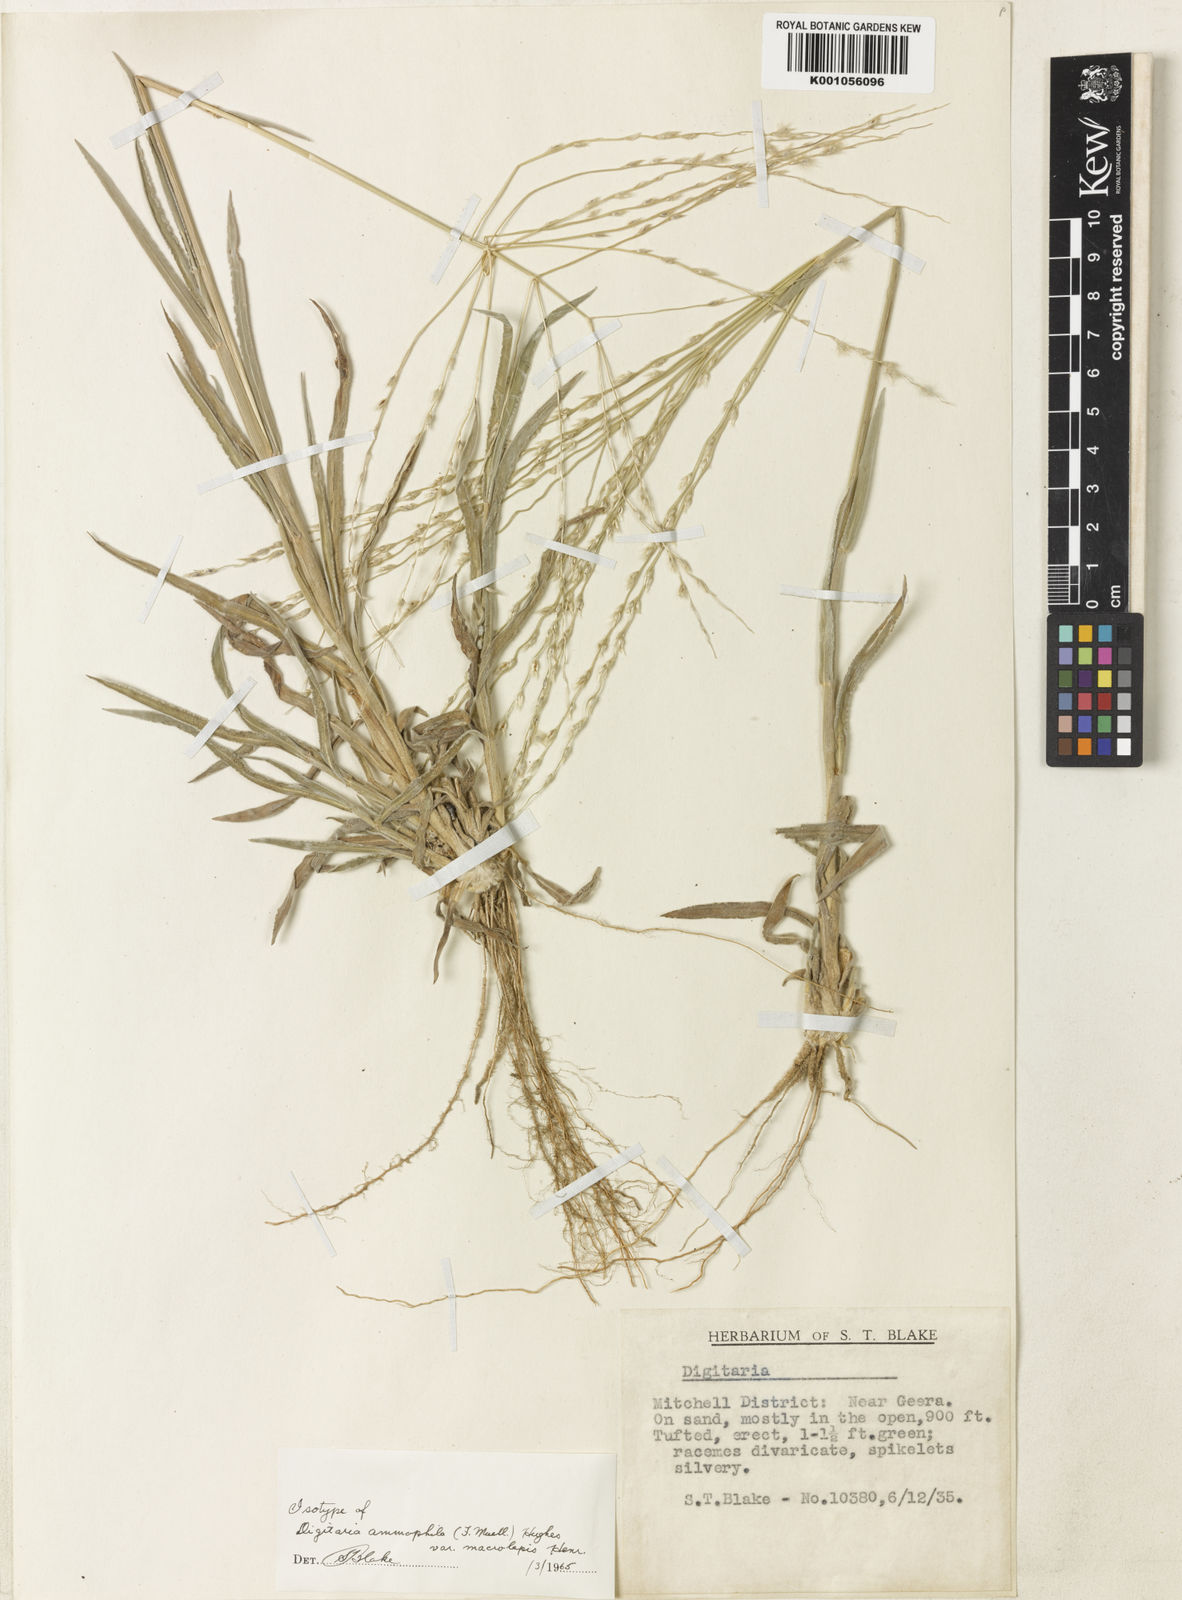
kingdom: Plantae
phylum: Tracheophyta
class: Liliopsida
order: Poales
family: Poaceae
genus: Digitaria
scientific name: Digitaria ammophila
